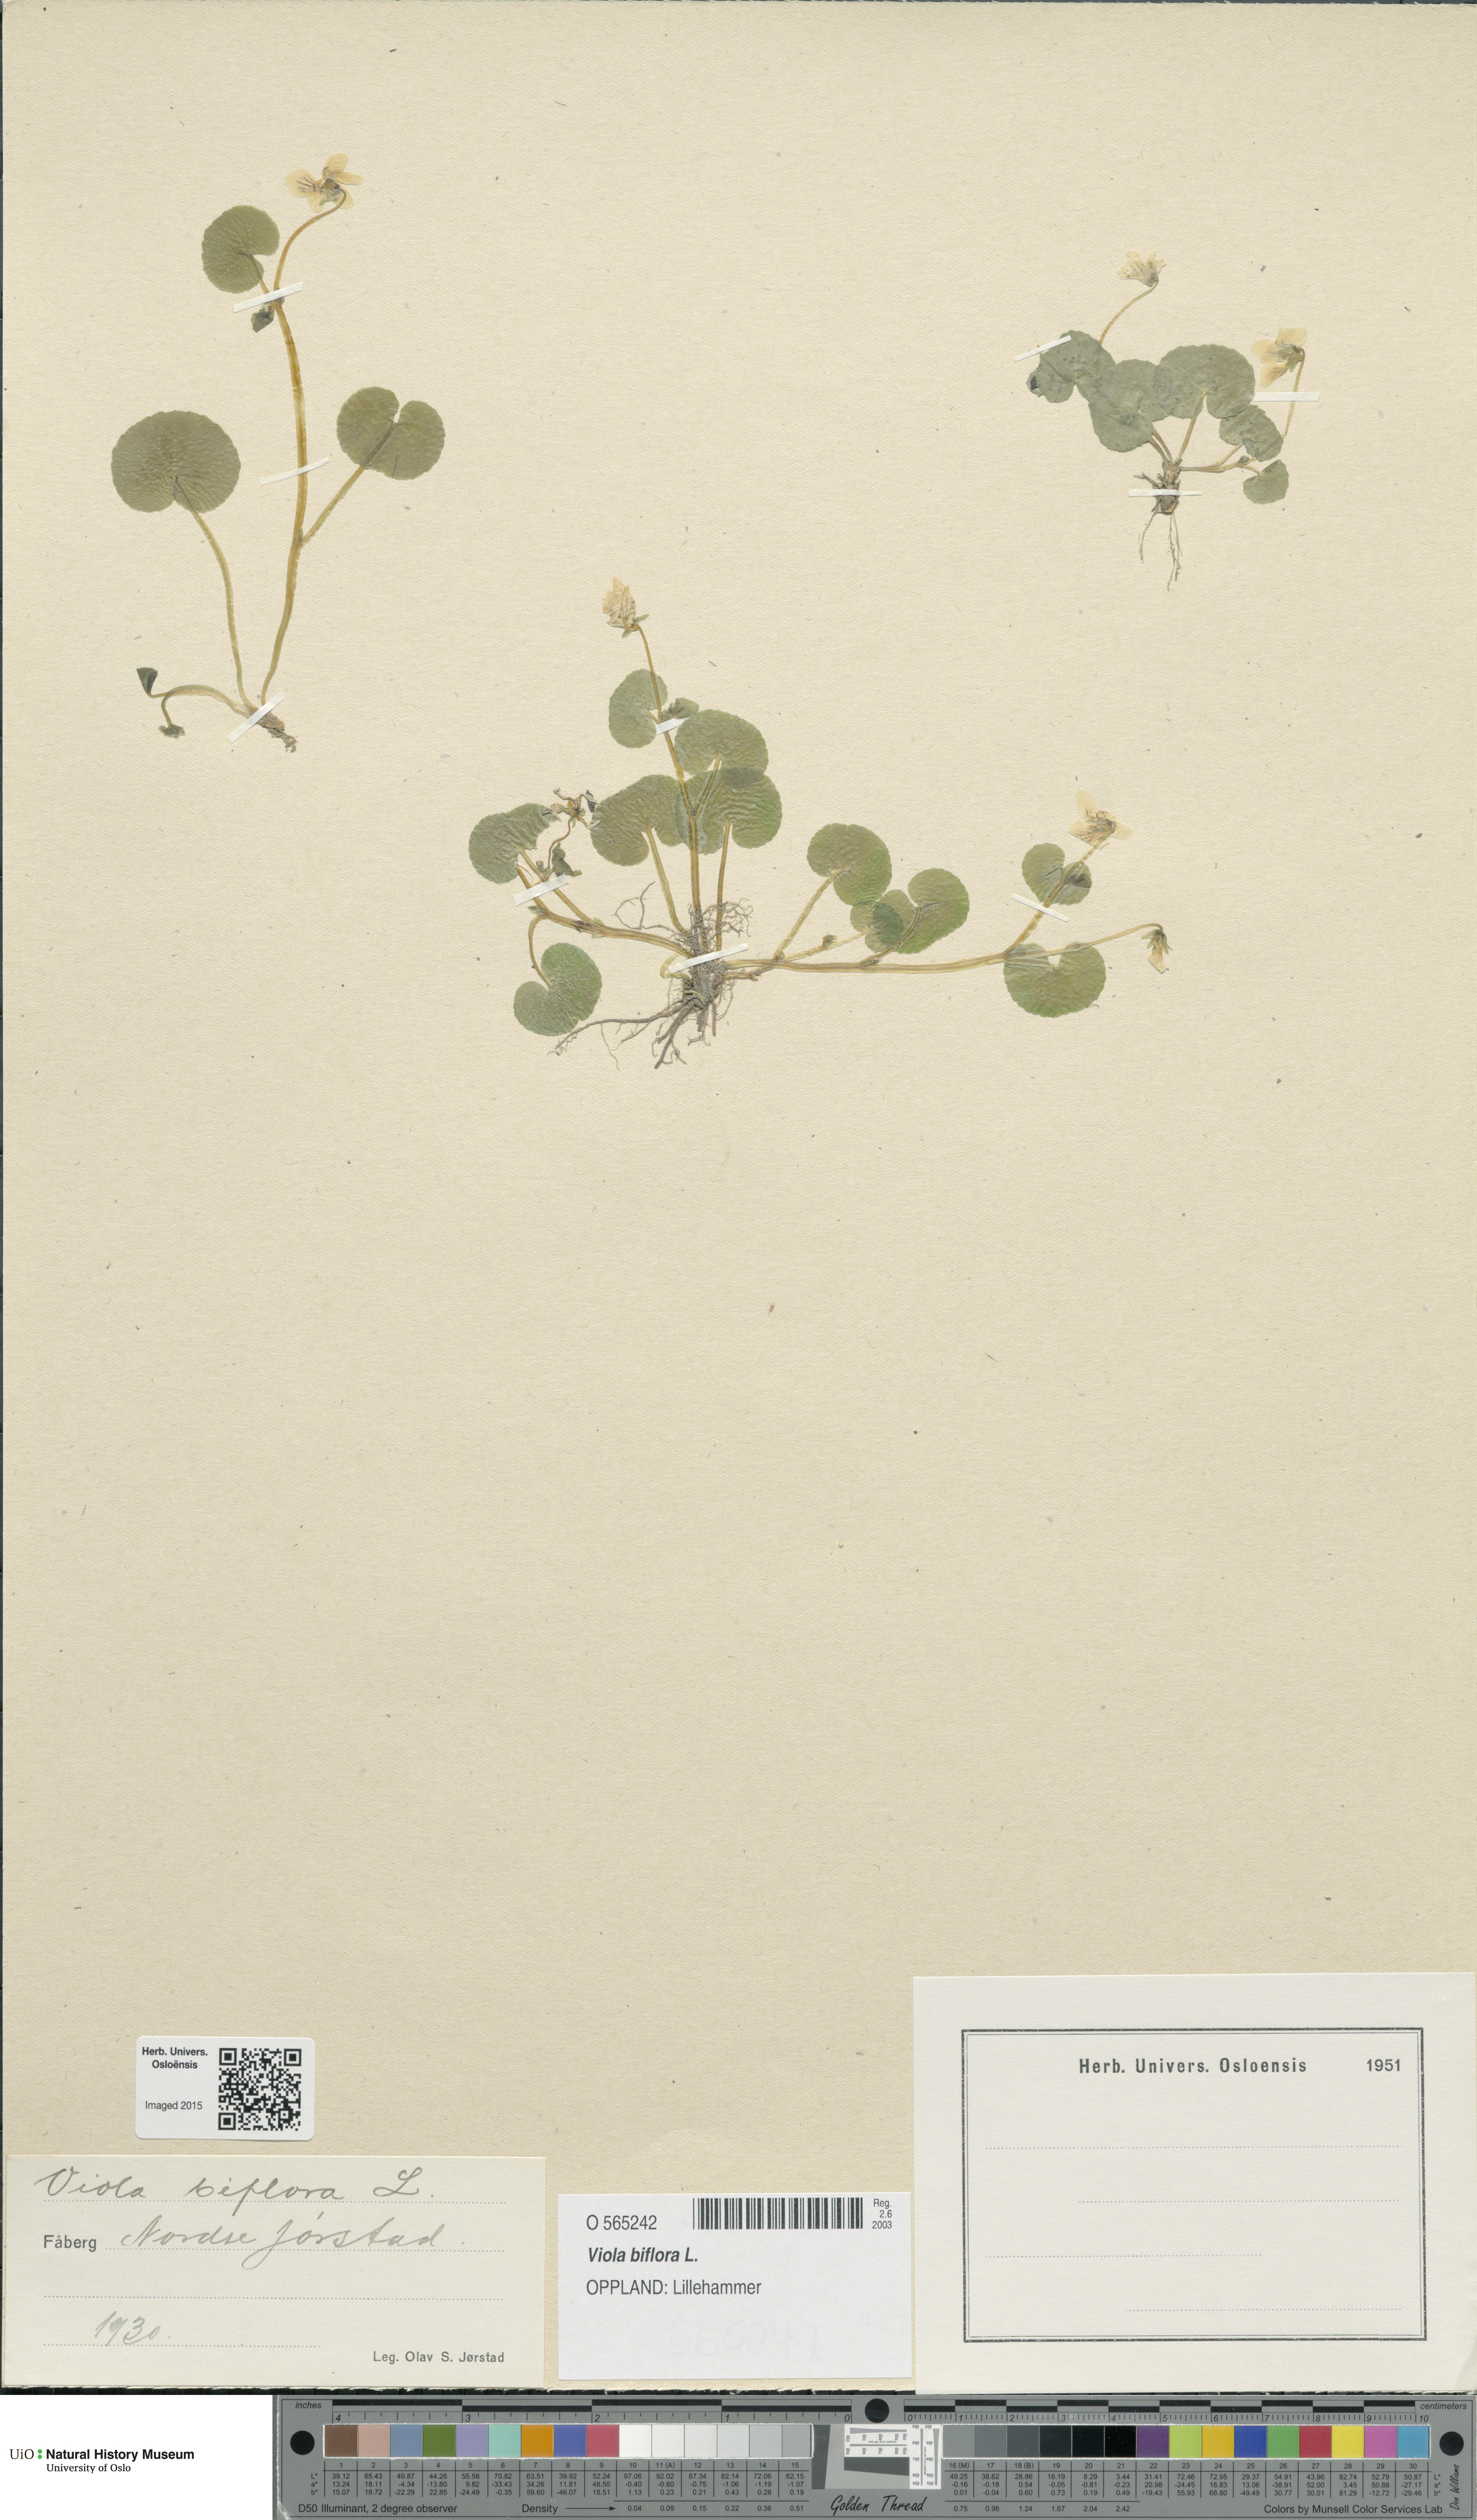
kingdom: Plantae
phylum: Tracheophyta
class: Magnoliopsida
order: Malpighiales
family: Violaceae
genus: Viola
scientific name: Viola biflora
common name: Alpine yellow violet
